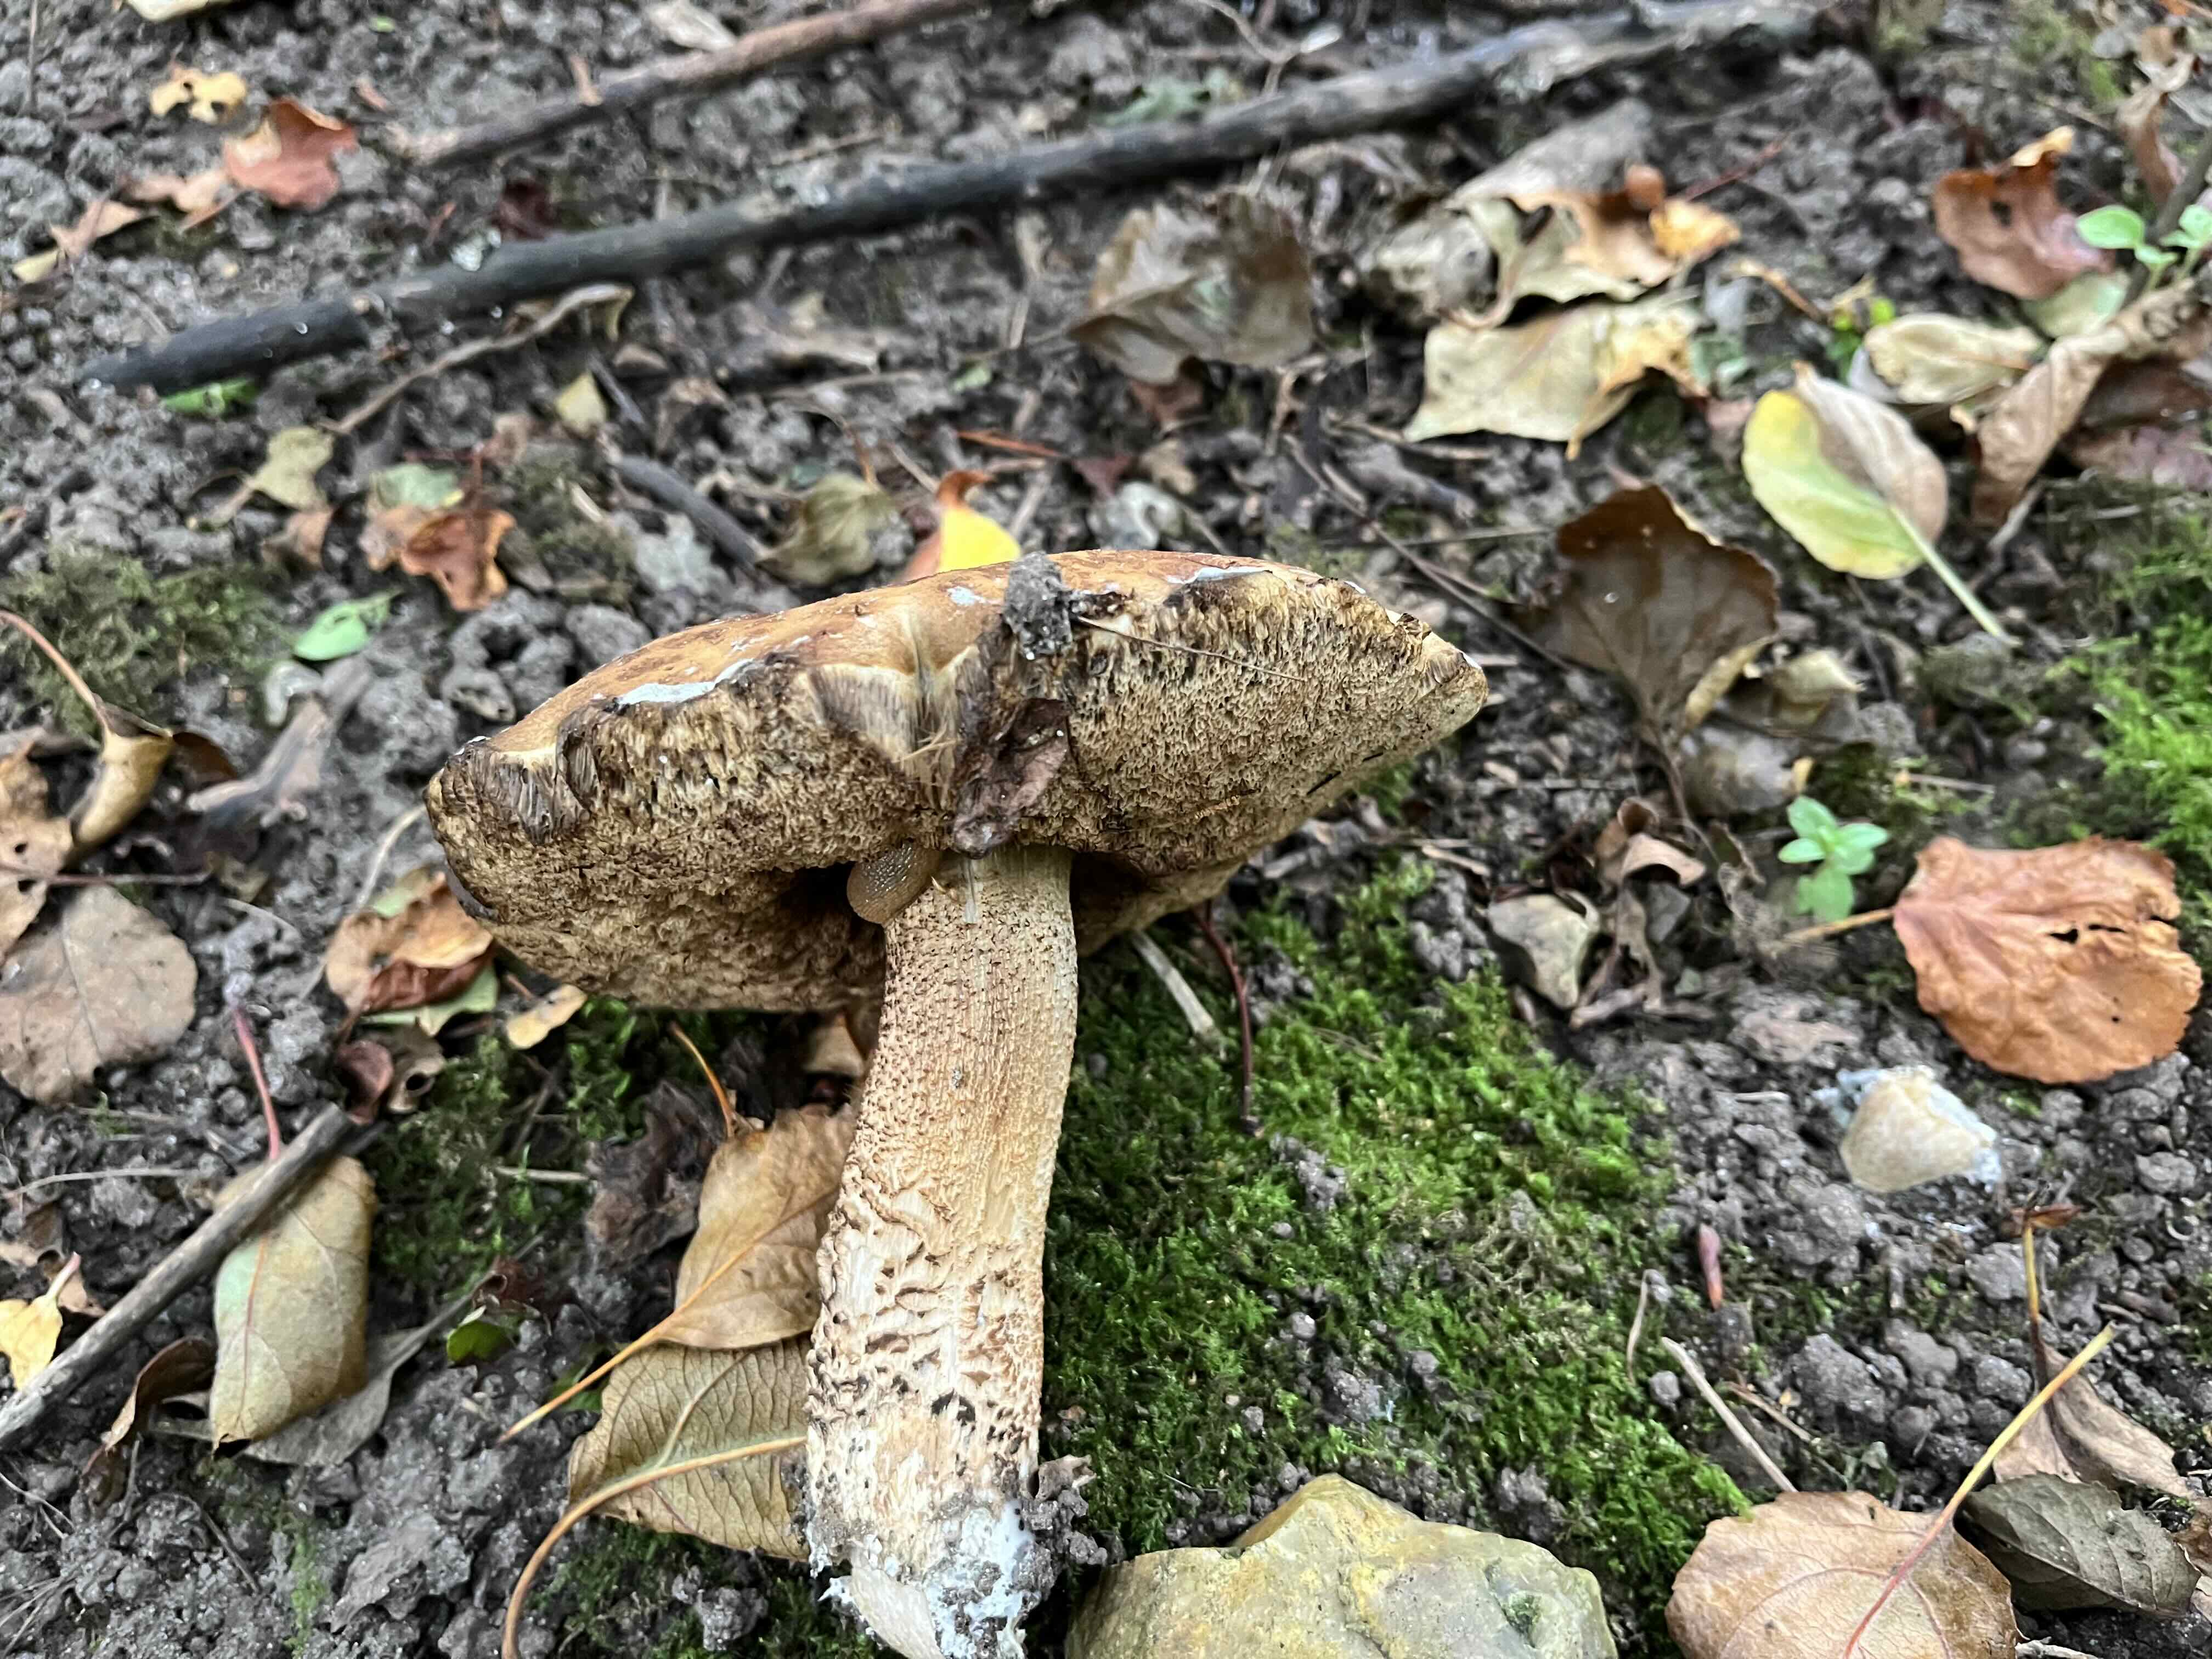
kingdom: Fungi
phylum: Basidiomycota
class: Agaricomycetes
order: Boletales
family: Boletaceae
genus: Leccinellum
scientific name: Leccinellum pseudoscabrum
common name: avnbøg-skælrørhat
